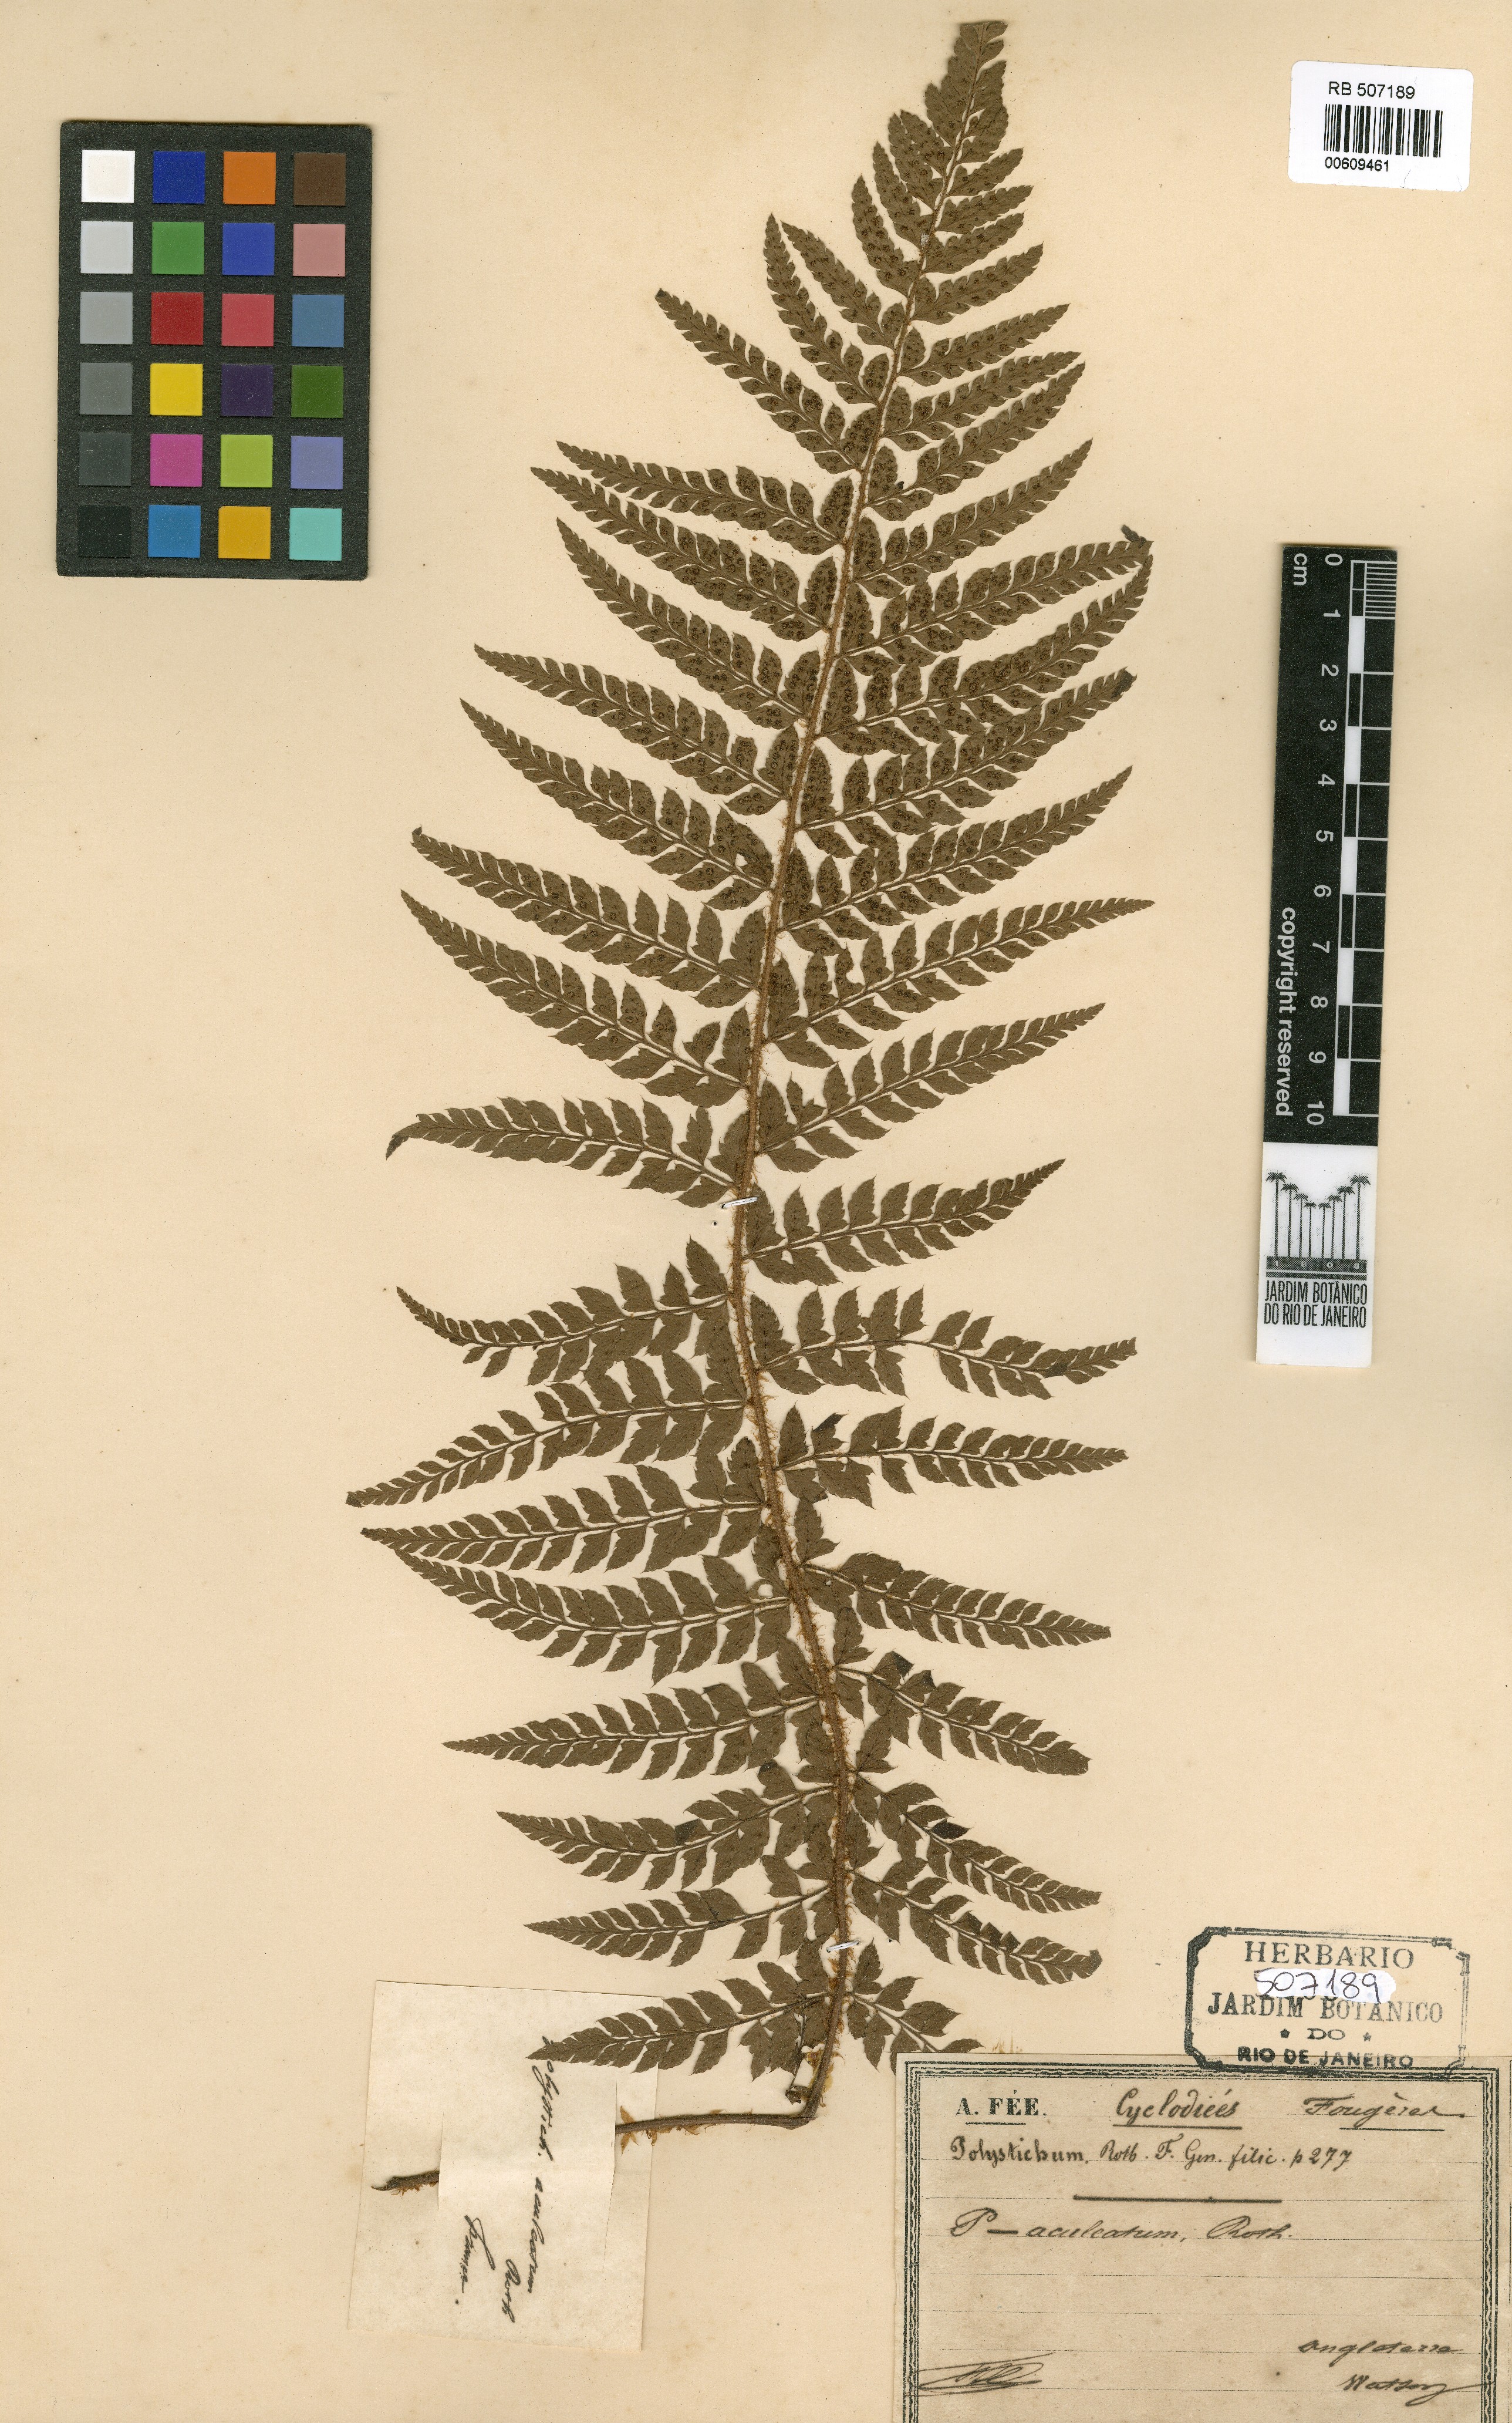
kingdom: Plantae
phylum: Tracheophyta
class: Polypodiopsida
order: Polypodiales
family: Dryopteridaceae
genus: Polystichum
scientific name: Polystichum aculeatum
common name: Hard shield-fern
